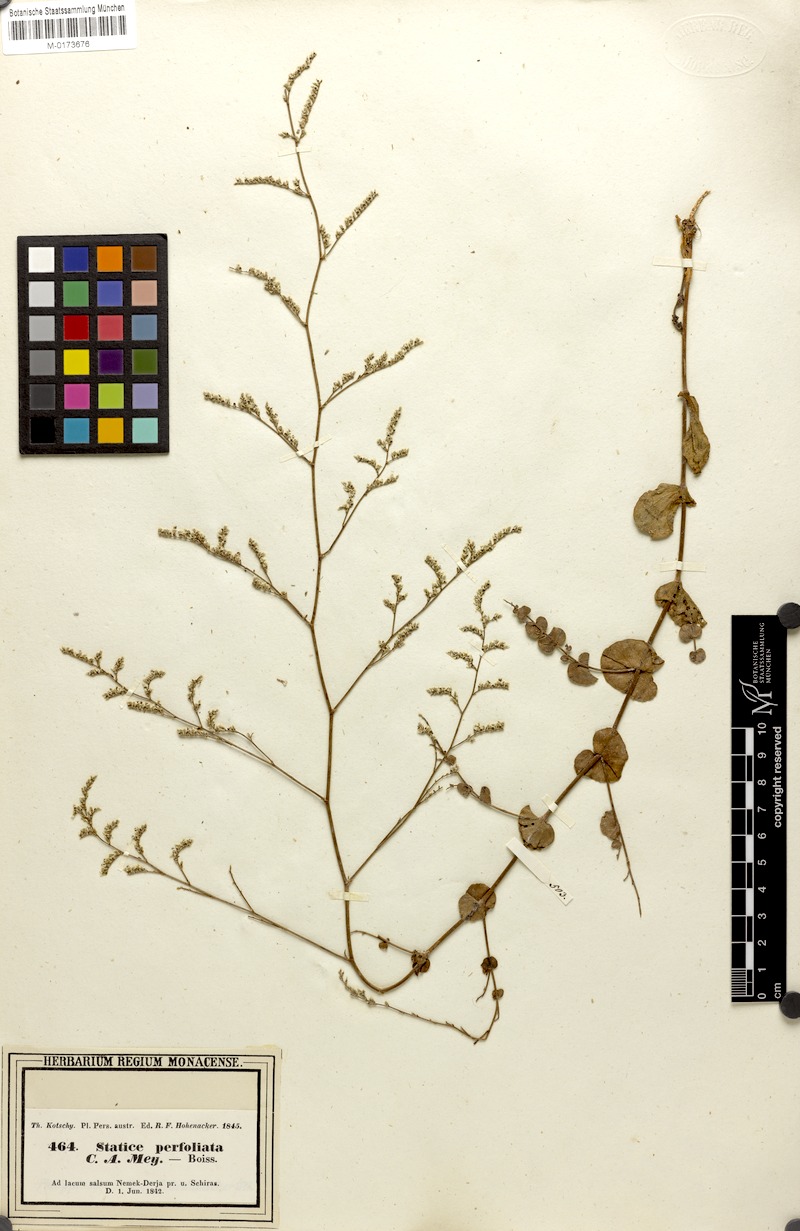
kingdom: Plantae
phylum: Tracheophyta
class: Magnoliopsida
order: Caryophyllales
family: Plumbaginaceae
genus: Limonium
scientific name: Limonium reniforme
